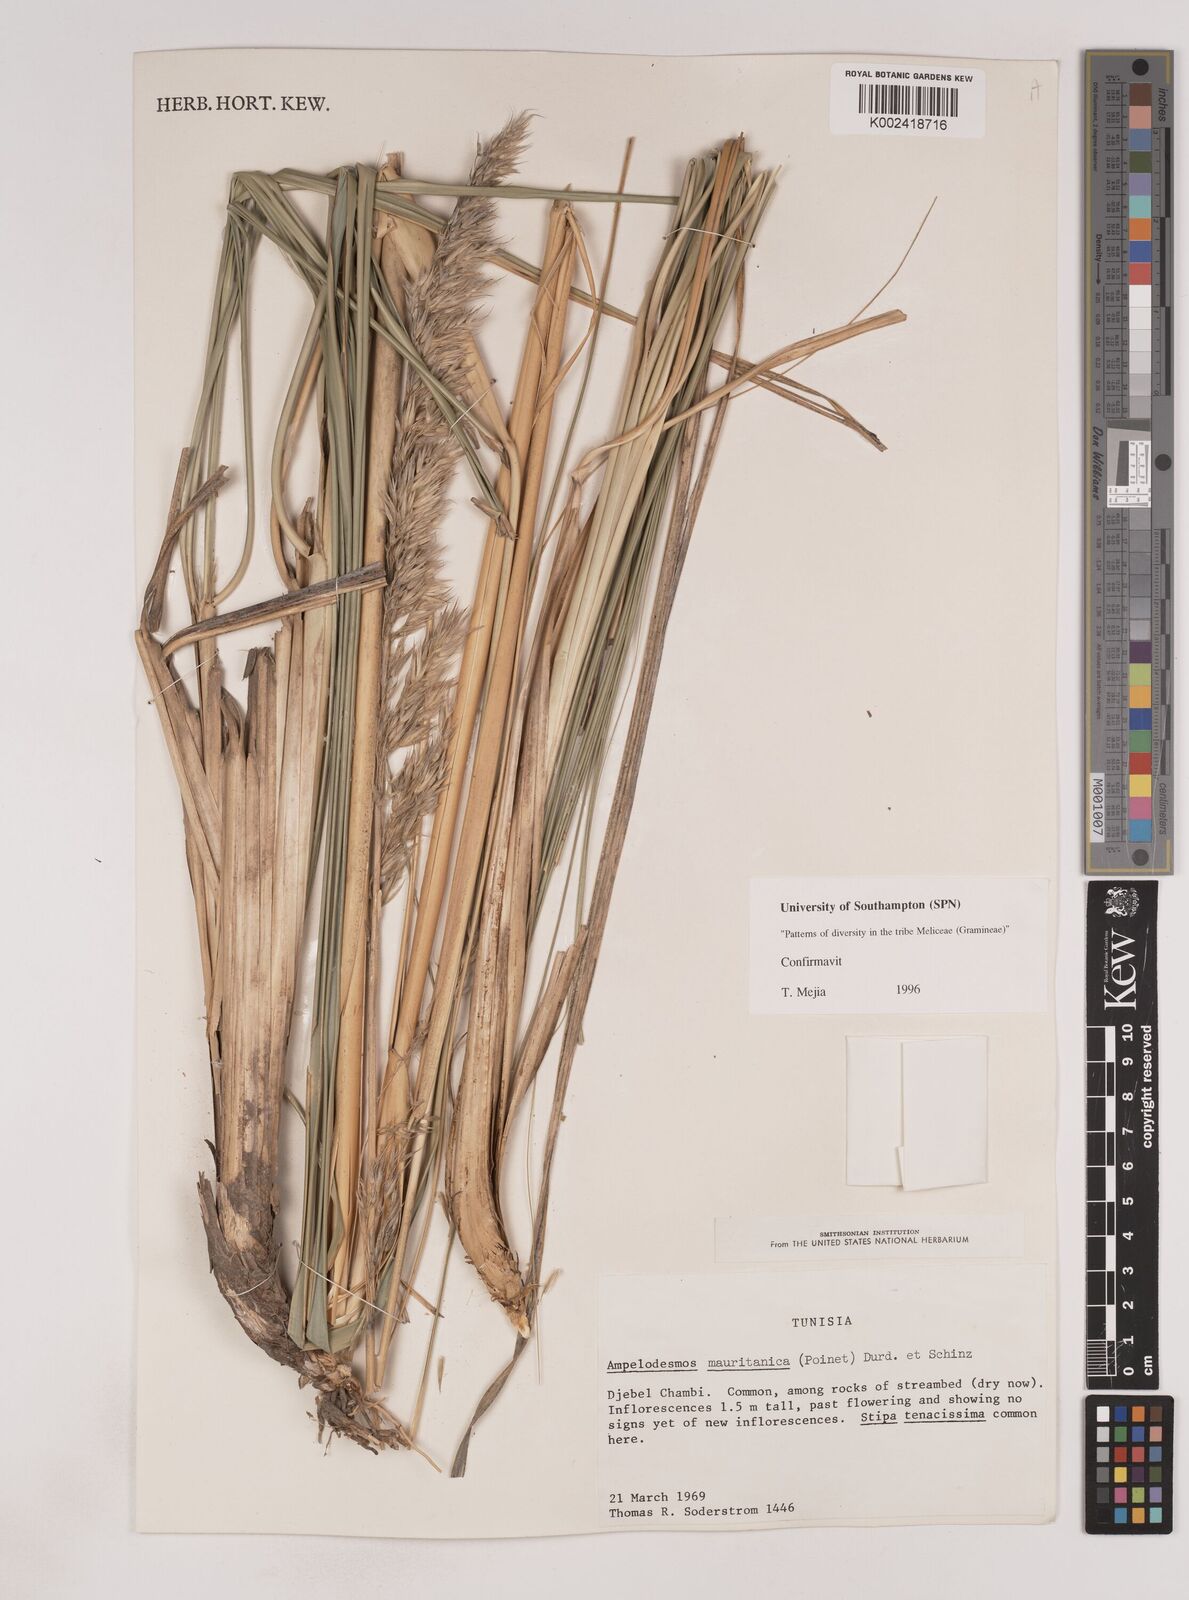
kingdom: Plantae
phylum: Tracheophyta
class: Liliopsida
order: Poales
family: Poaceae
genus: Ampelodesmos
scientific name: Ampelodesmos mauritanicus
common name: Mauritanian grass
